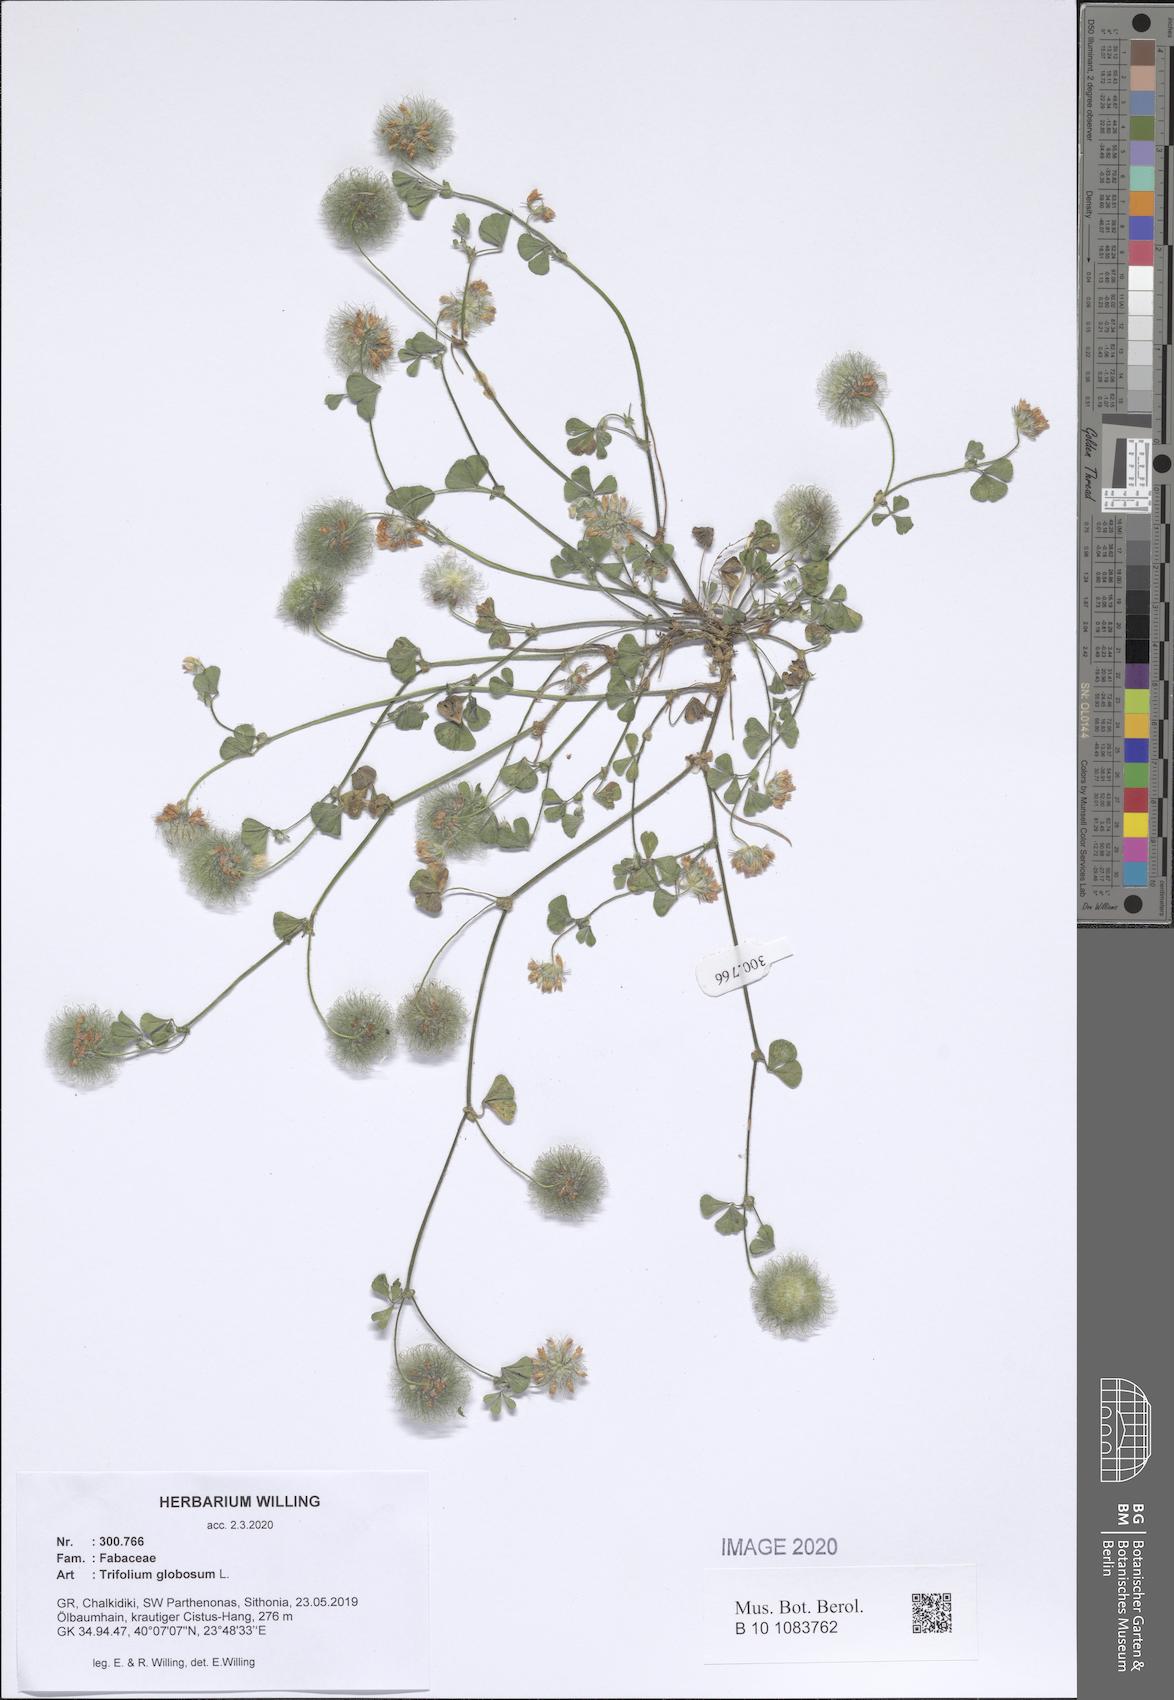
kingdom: Plantae
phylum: Tracheophyta
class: Magnoliopsida
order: Fabales
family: Fabaceae
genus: Trifolium
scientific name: Trifolium globosum
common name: Round-head clover
